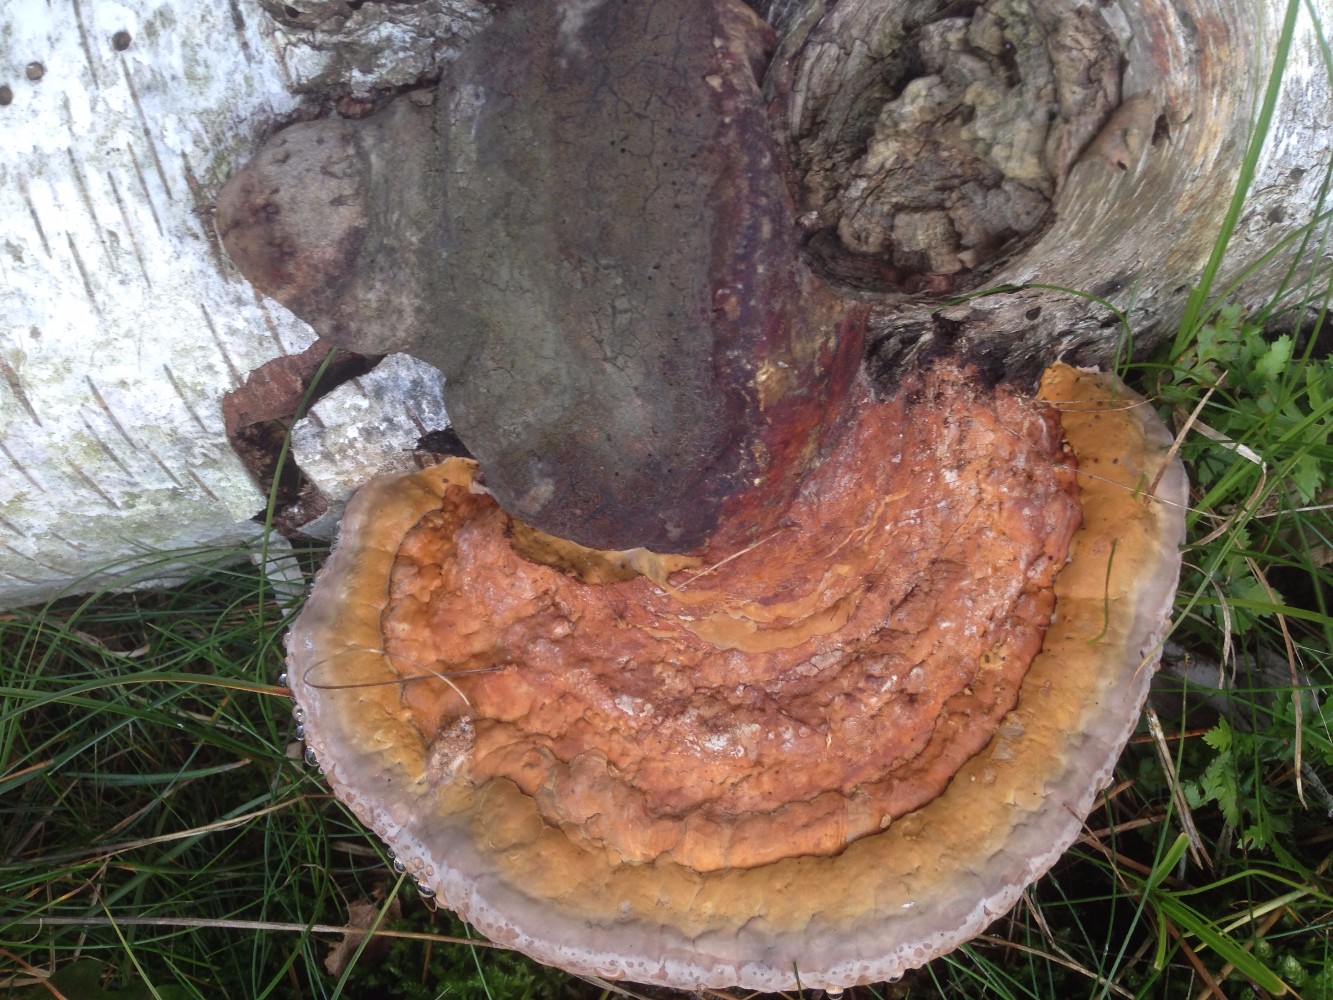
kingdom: Fungi
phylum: Basidiomycota
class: Agaricomycetes
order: Polyporales
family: Fomitopsidaceae
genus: Fomitopsis
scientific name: Fomitopsis pinicola
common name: randbæltet hovporesvamp
